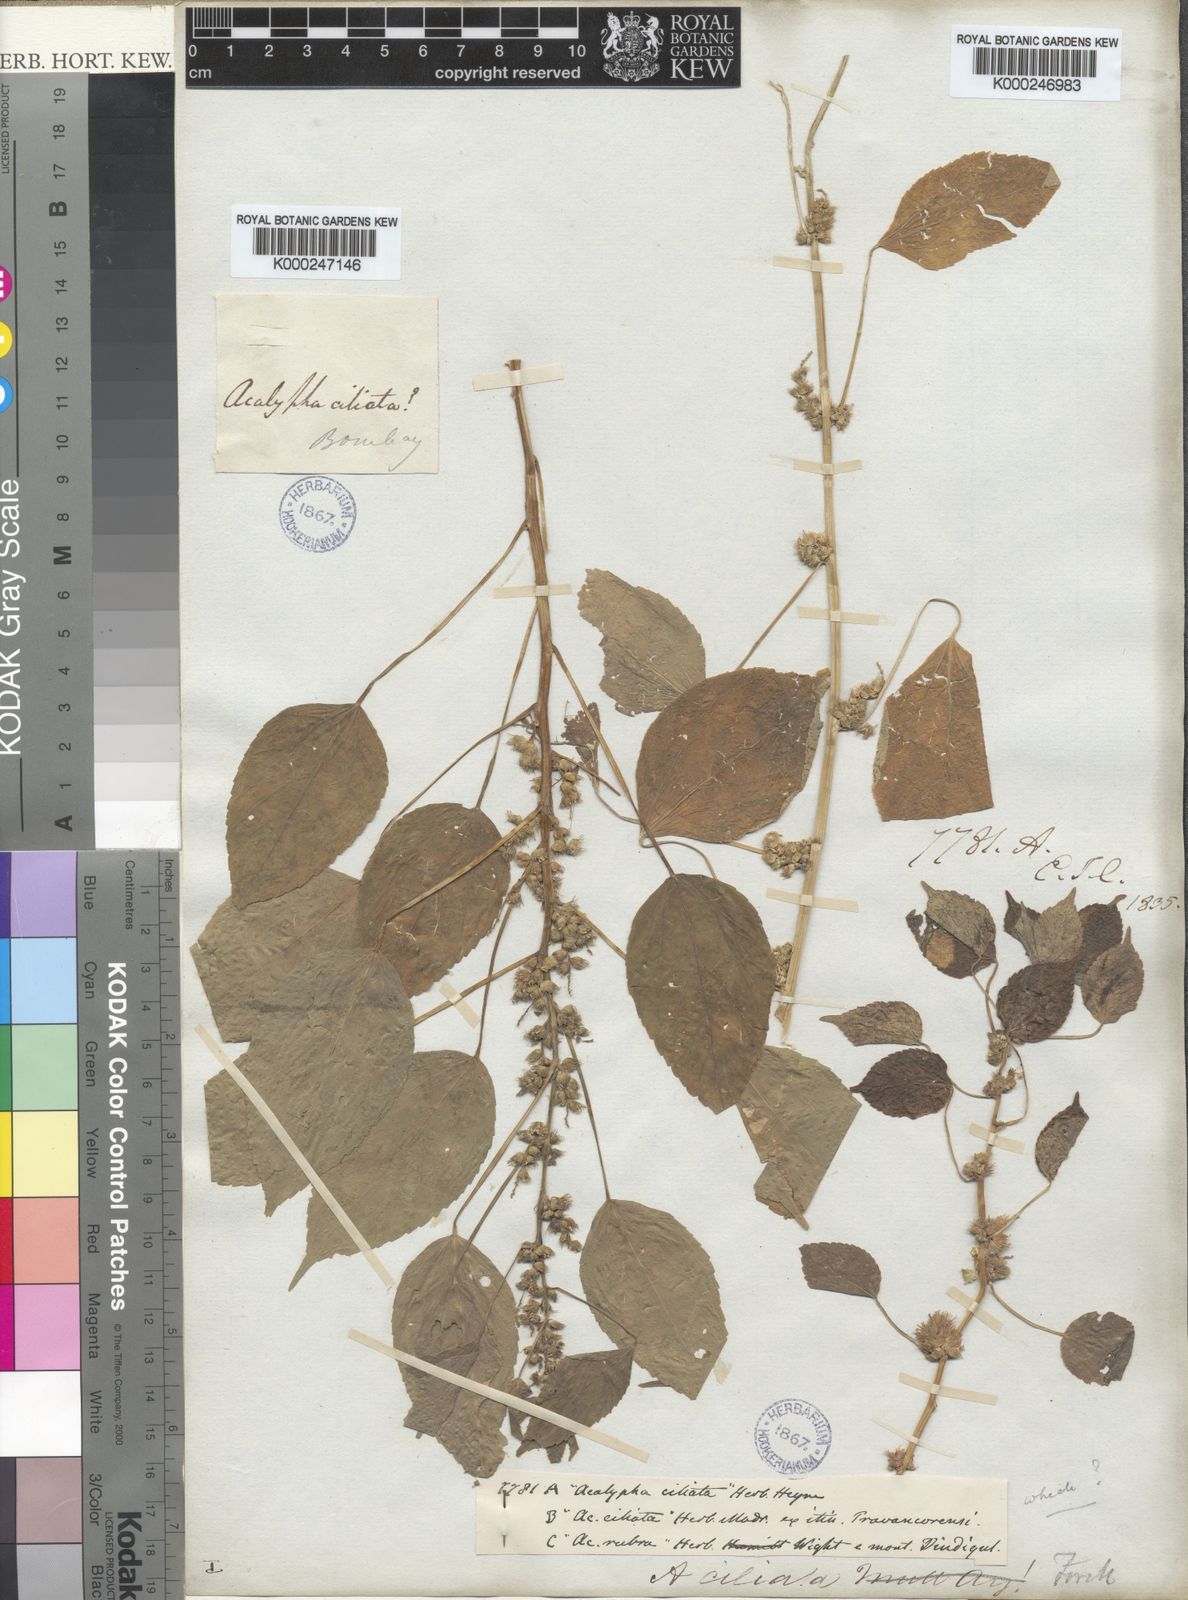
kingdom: Plantae
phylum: Tracheophyta
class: Magnoliopsida
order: Malpighiales
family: Euphorbiaceae
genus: Acalypha
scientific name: Acalypha ciliata
